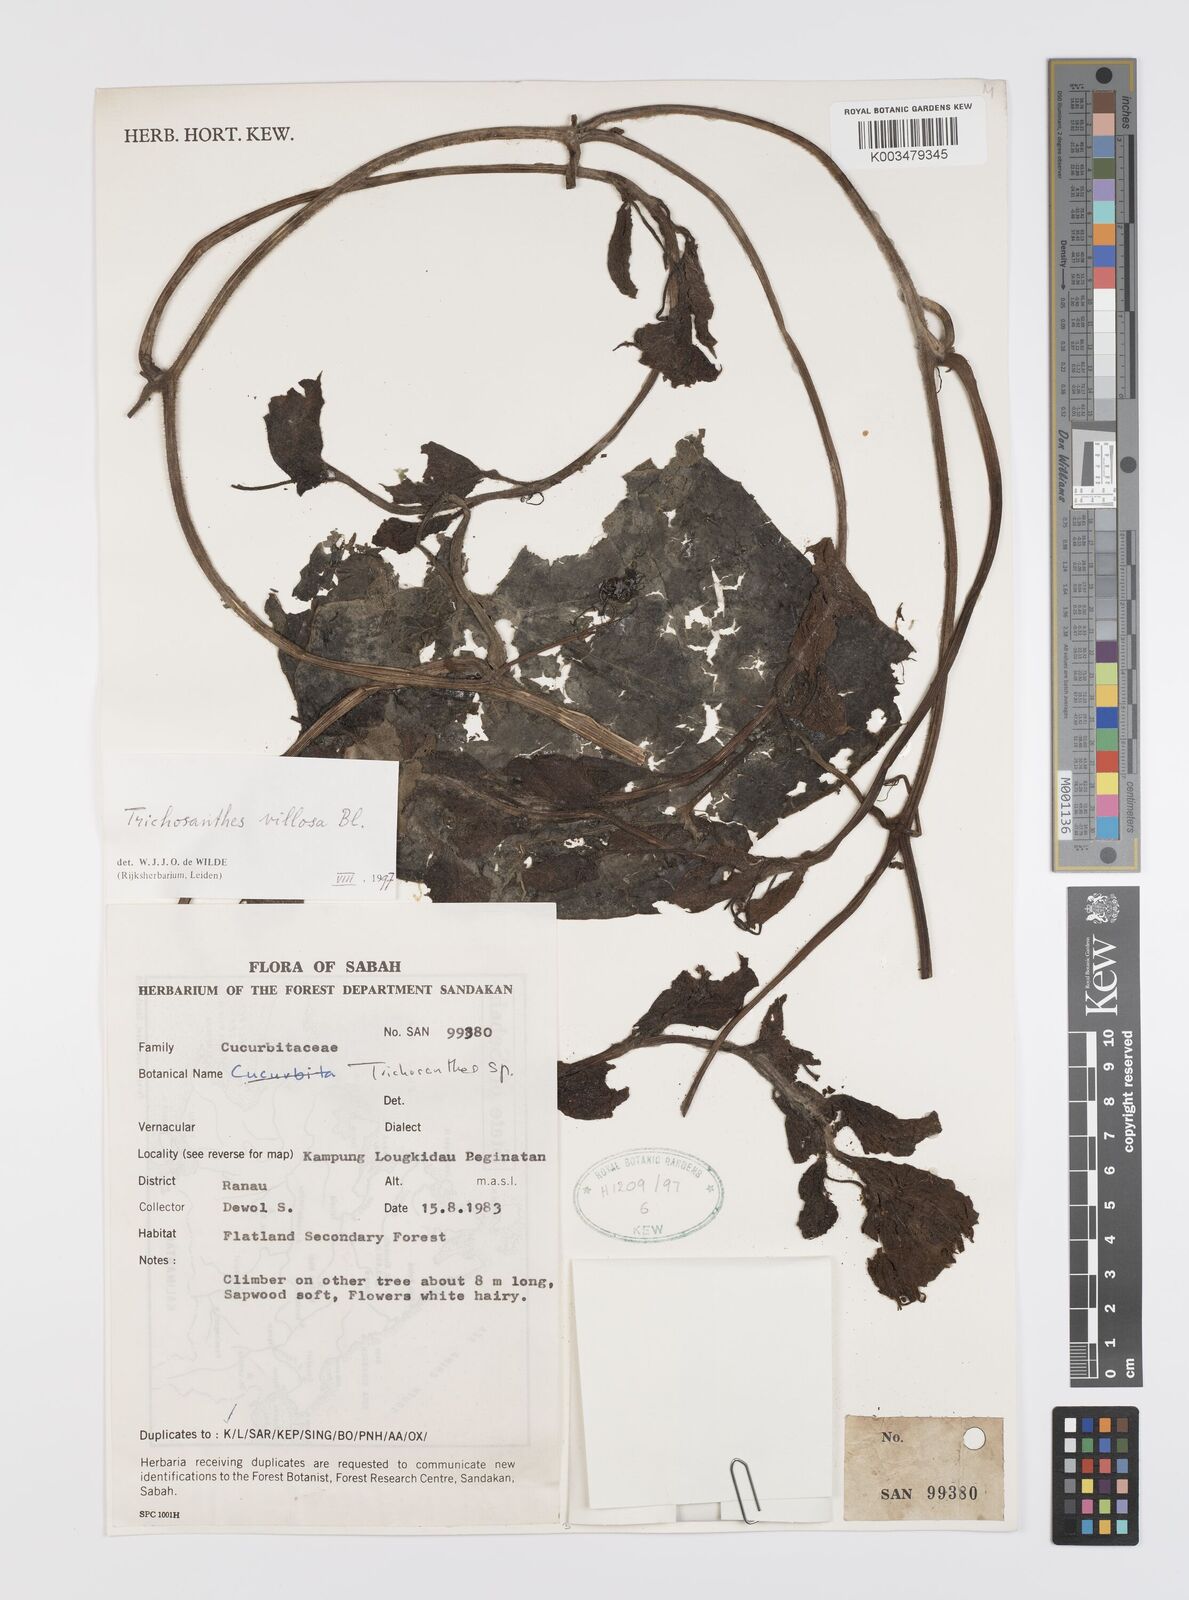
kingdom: Plantae
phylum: Tracheophyta
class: Magnoliopsida
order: Cucurbitales
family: Cucurbitaceae
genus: Trichosanthes
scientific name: Trichosanthes villosa
